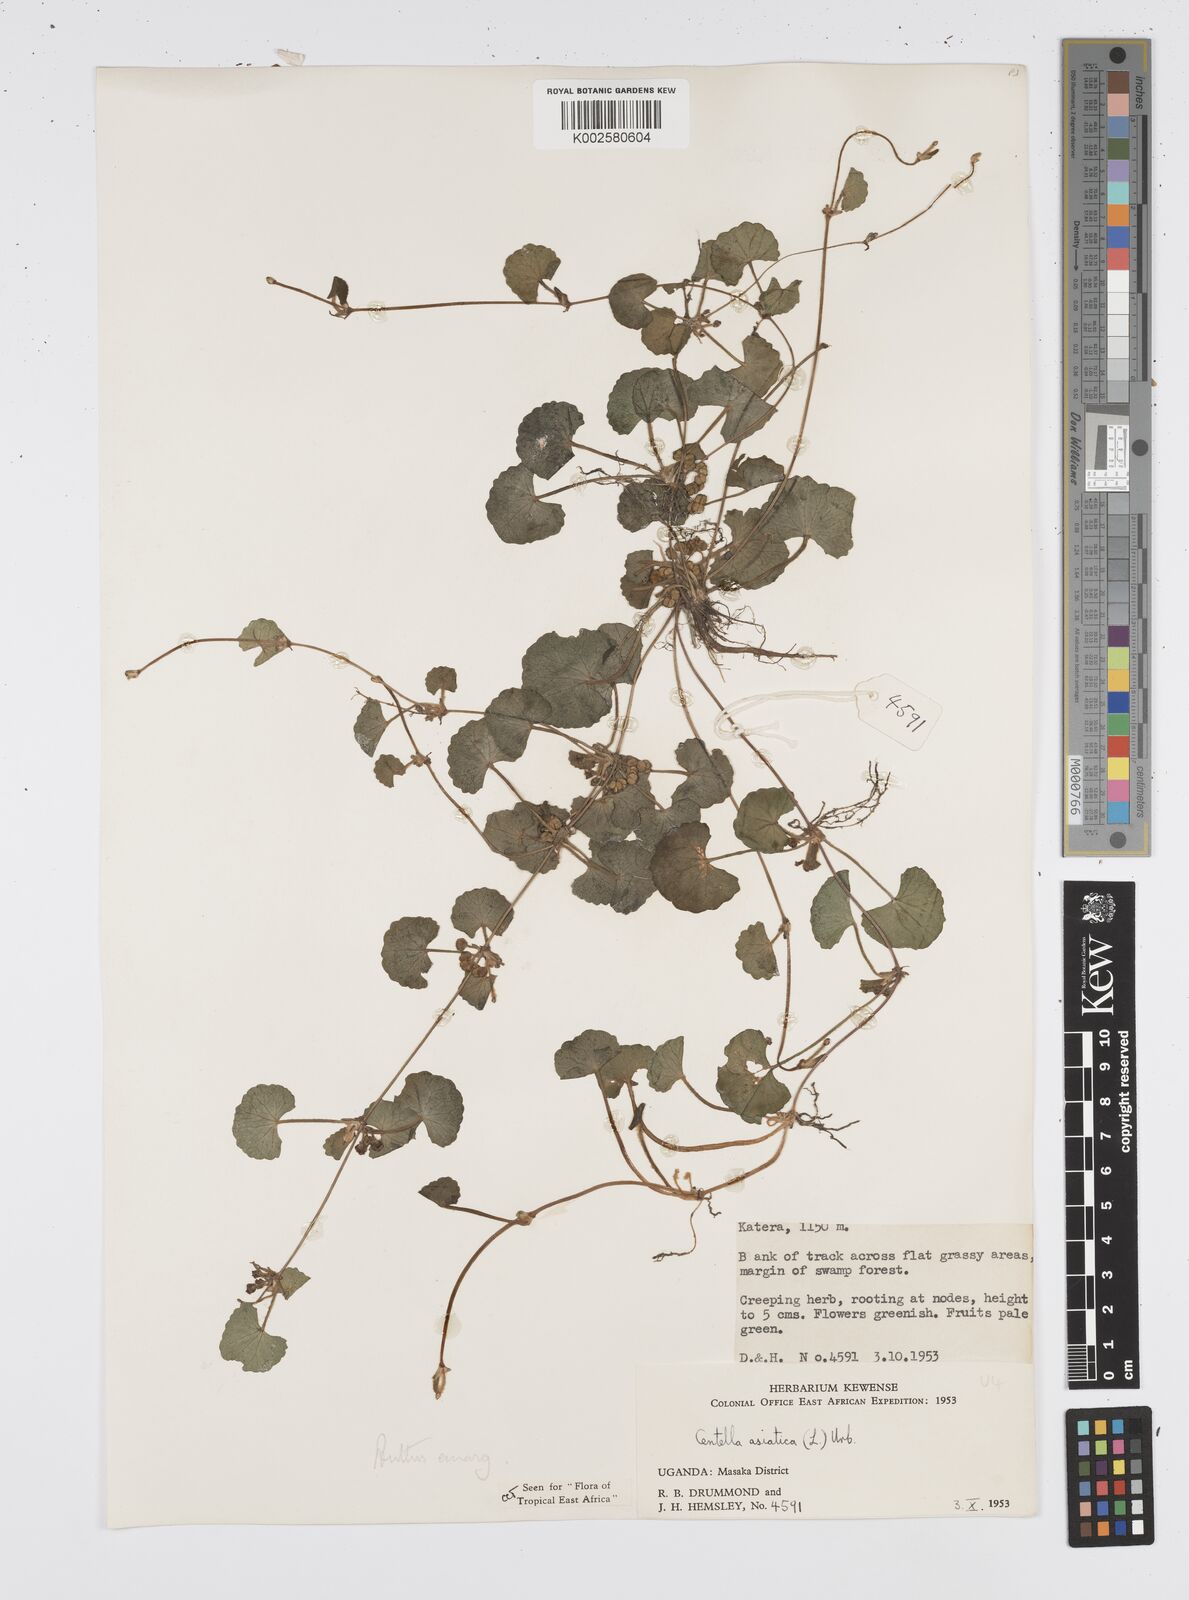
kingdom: Plantae
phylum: Tracheophyta
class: Magnoliopsida
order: Apiales
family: Apiaceae
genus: Centella
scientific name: Centella asiatica
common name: Spadeleaf
